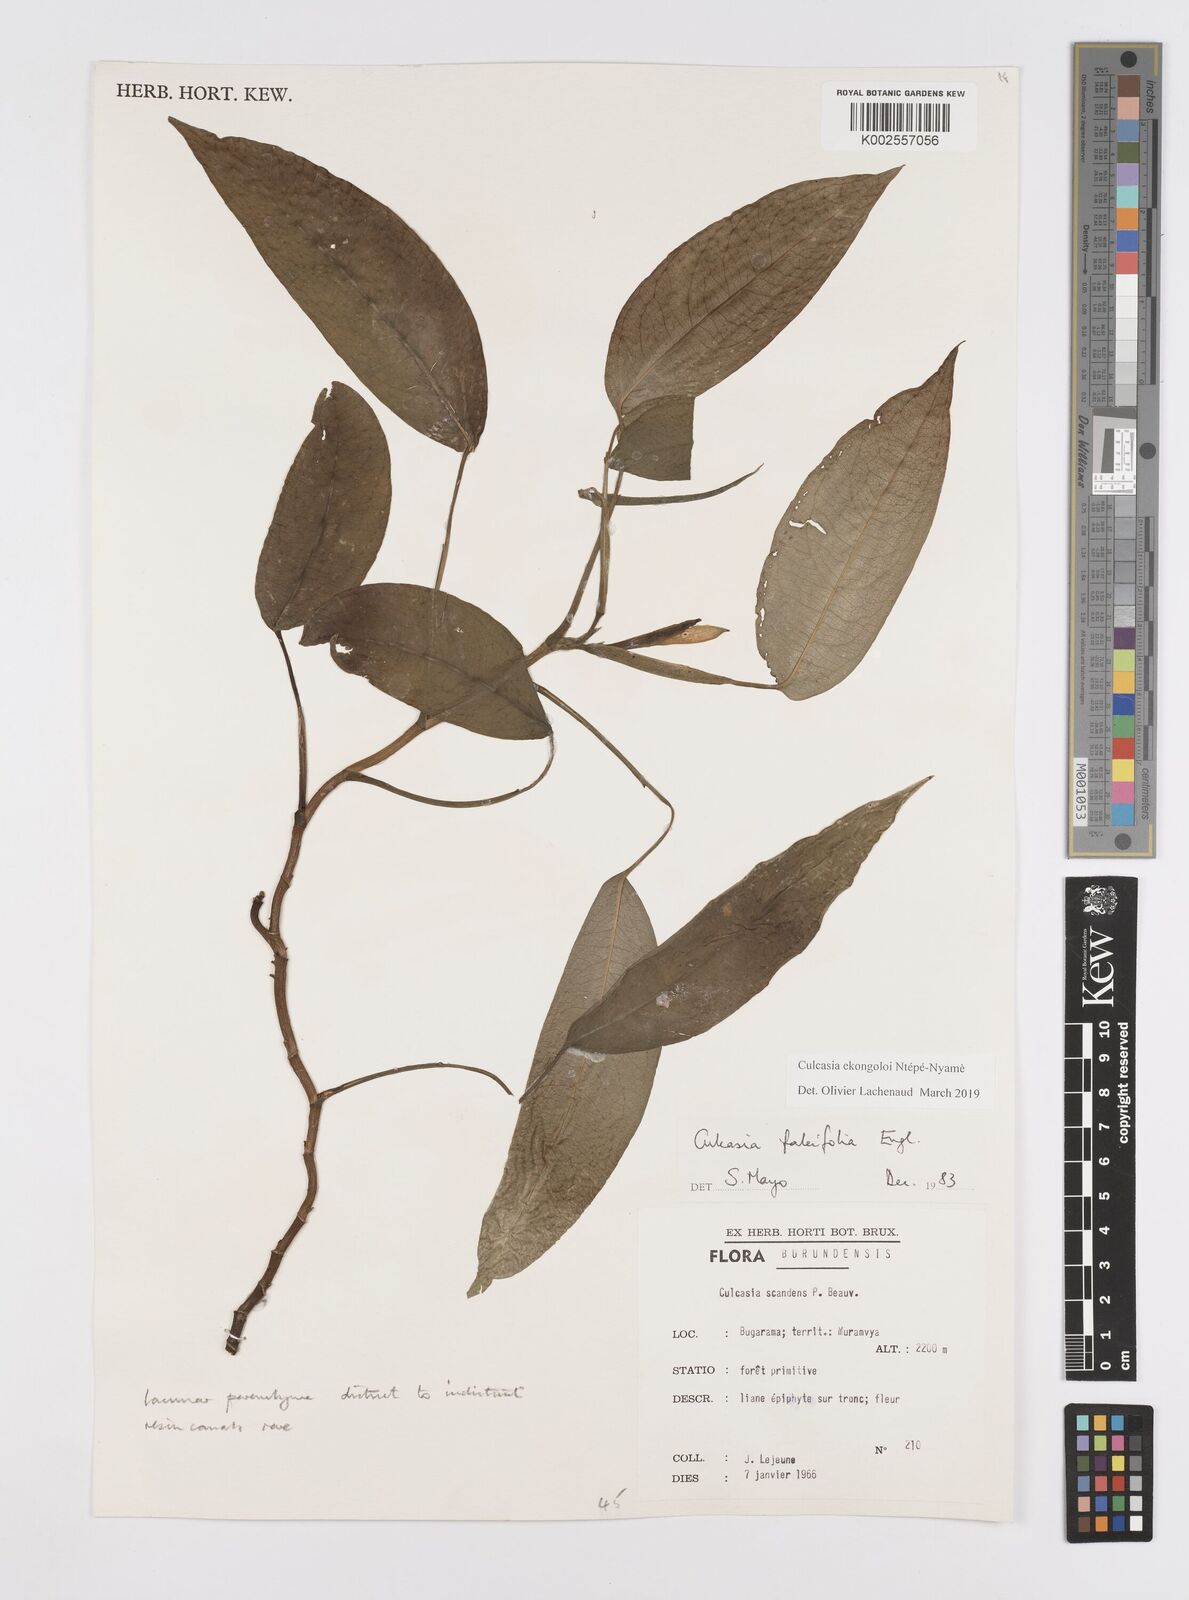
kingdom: Plantae
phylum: Tracheophyta
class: Liliopsida
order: Alismatales
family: Araceae
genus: Culcasia
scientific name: Culcasia ekongoloi
